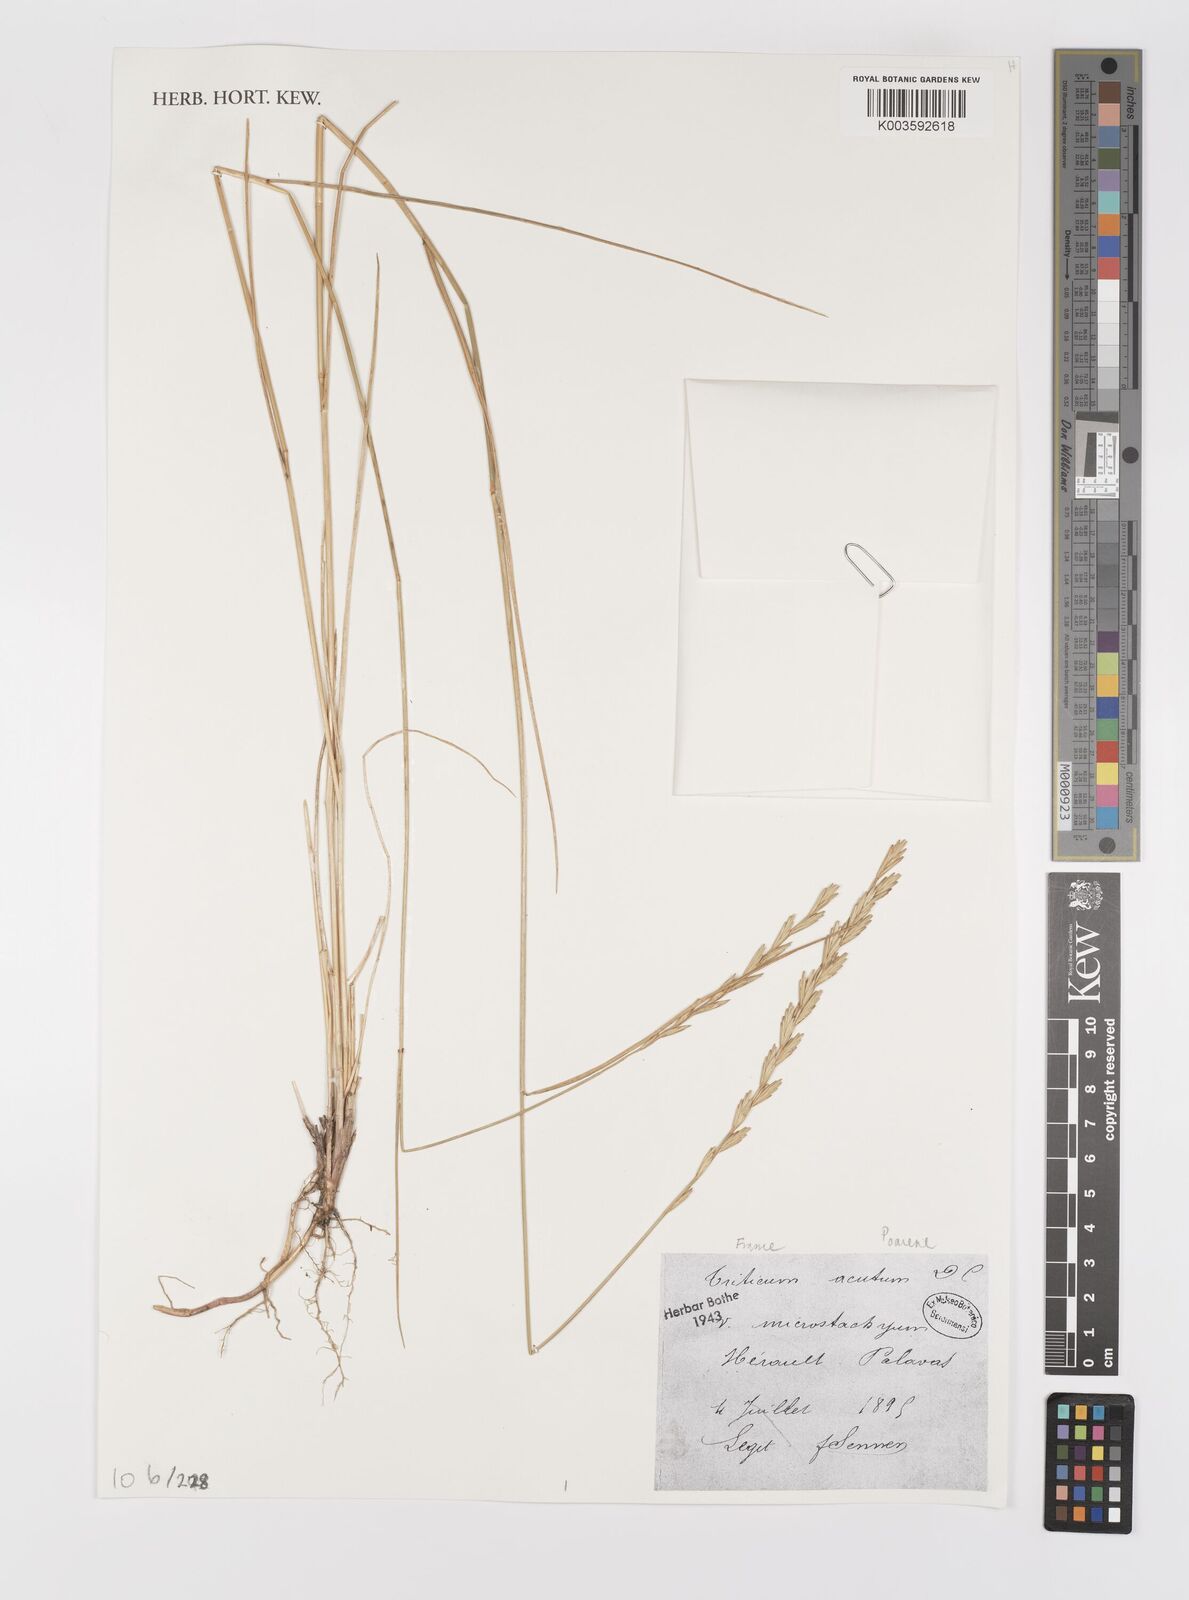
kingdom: Plantae
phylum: Tracheophyta
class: Liliopsida
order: Poales
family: Poaceae
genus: Thinopyrum
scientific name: Thinopyrum acutum
